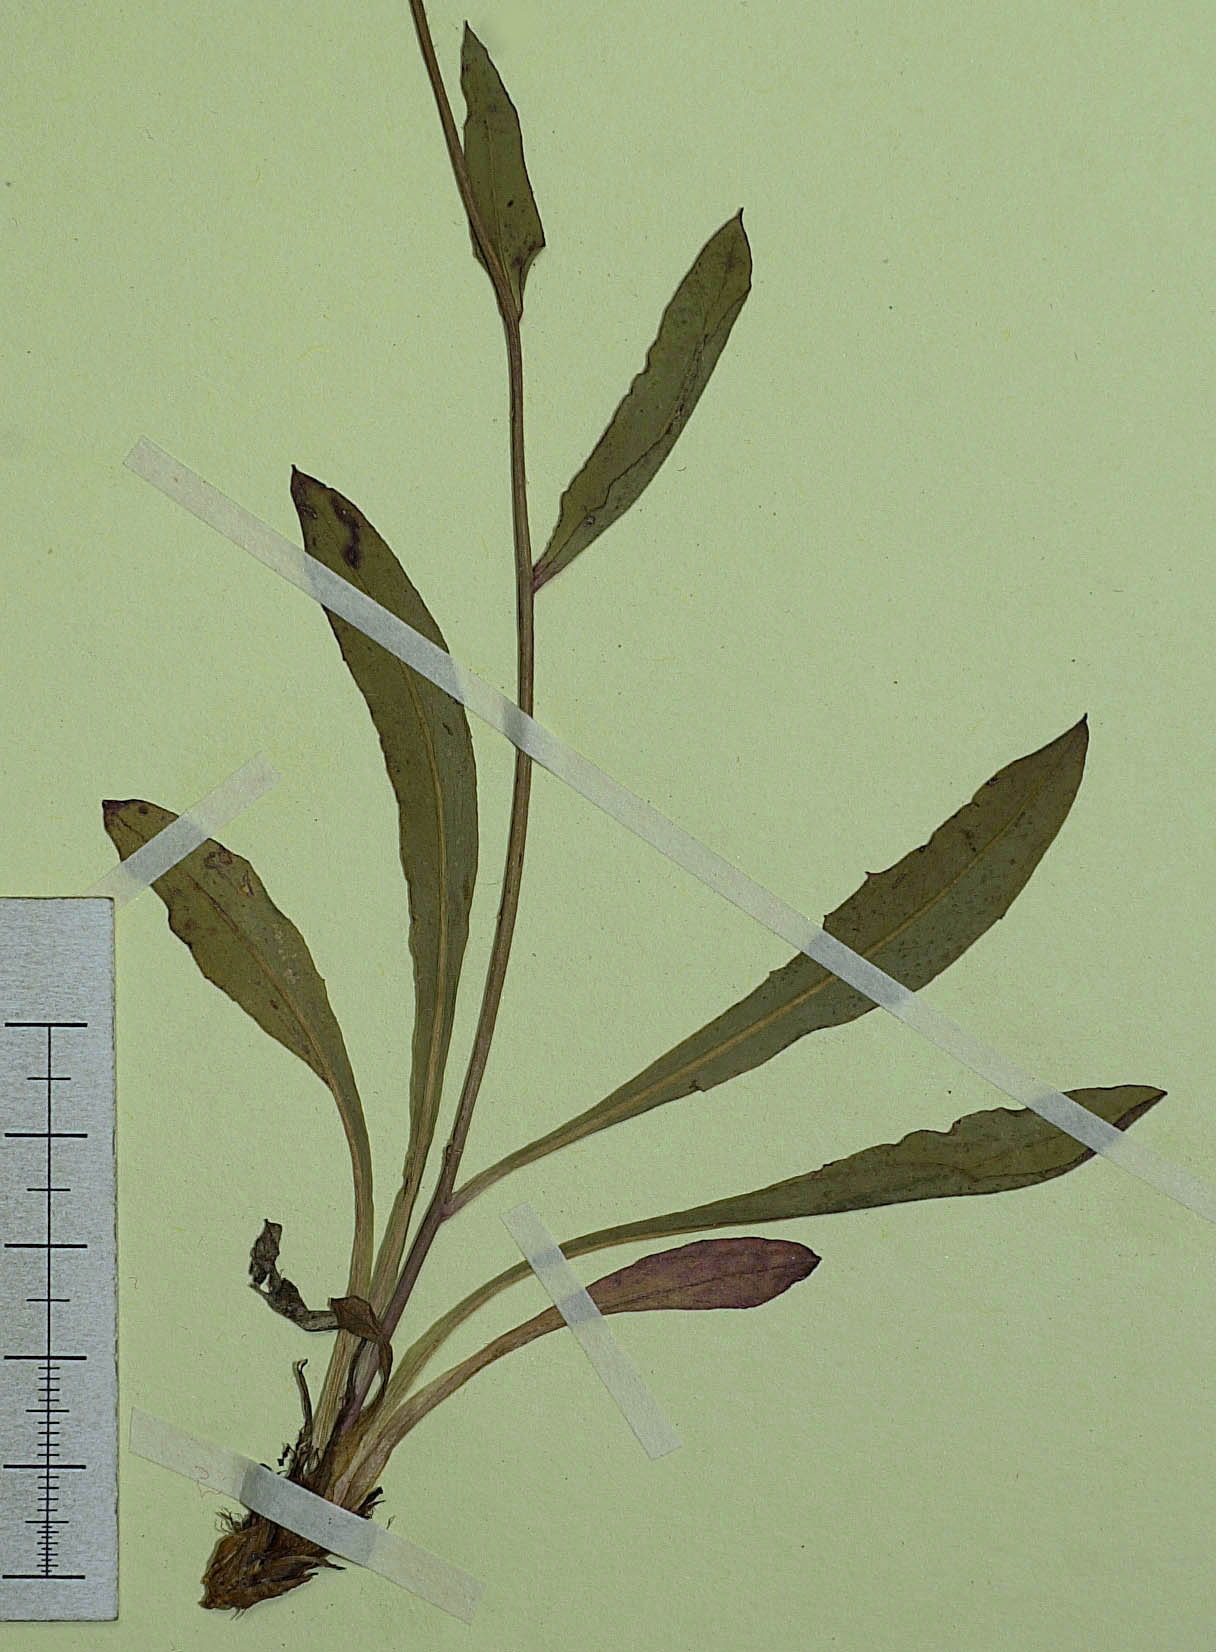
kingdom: Plantae
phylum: Tracheophyta
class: Magnoliopsida
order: Asterales
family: Asteraceae
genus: Hieracium
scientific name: Hieracium glabratum
